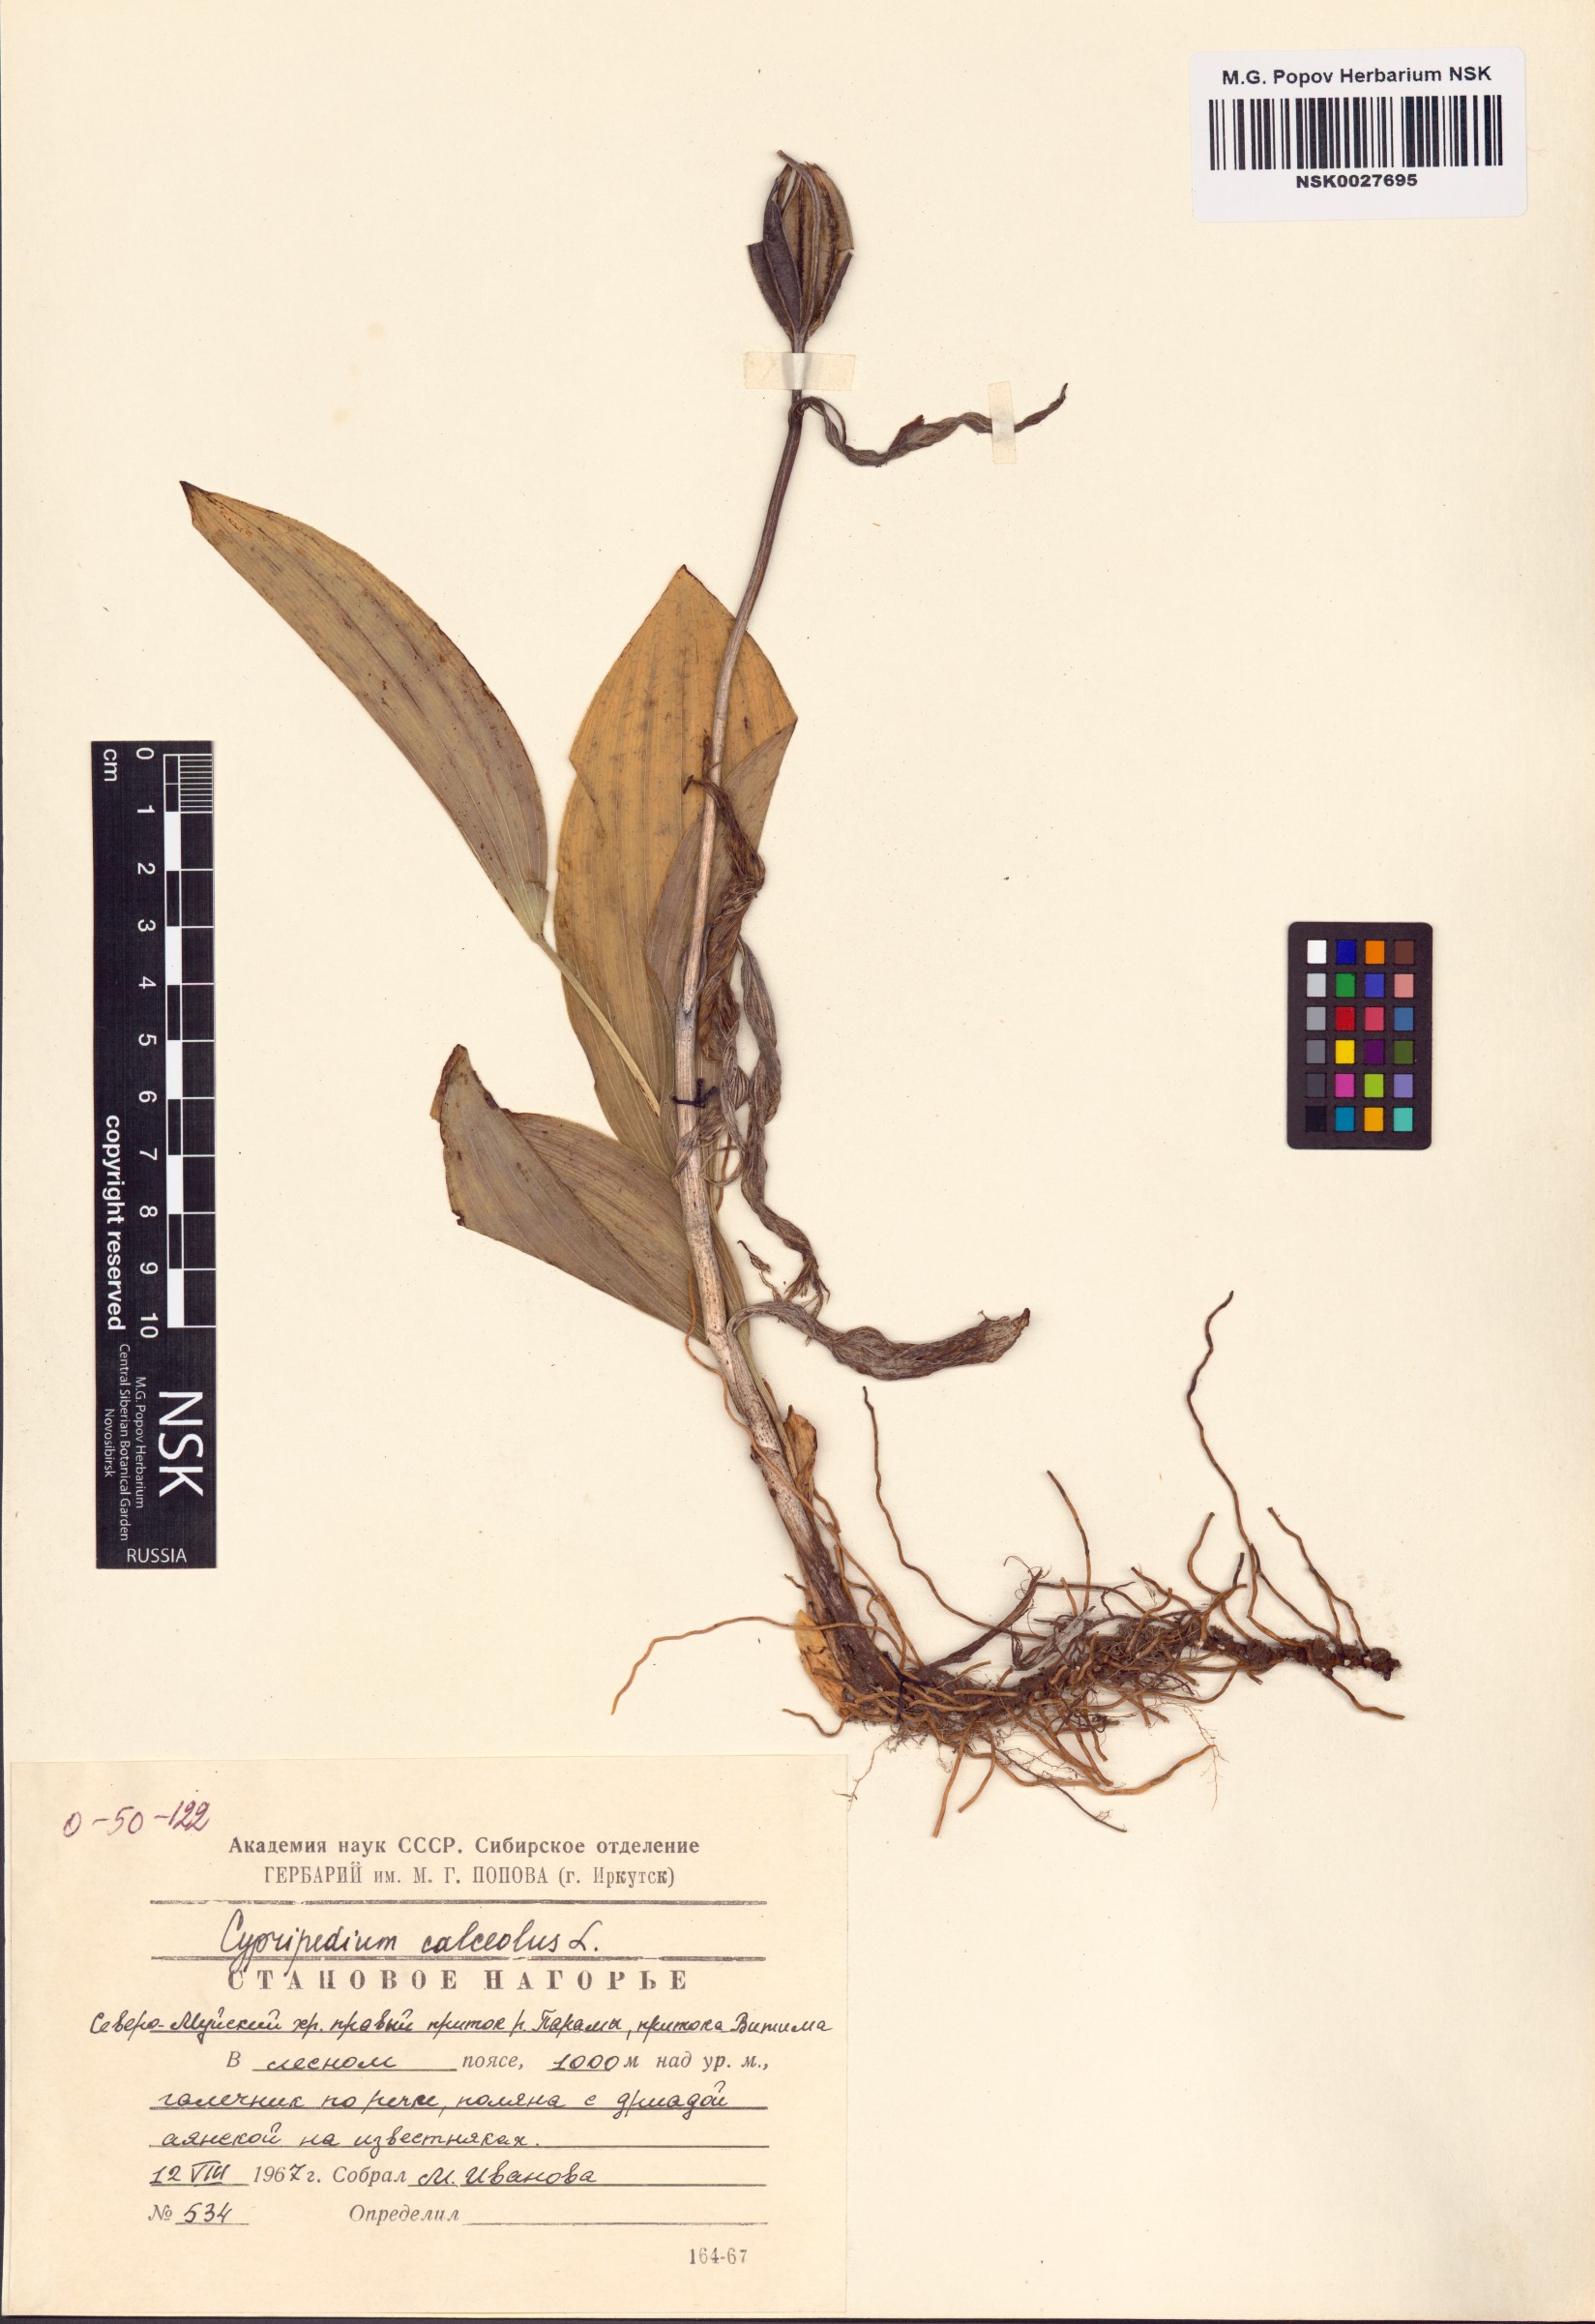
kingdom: Plantae
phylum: Tracheophyta
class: Liliopsida
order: Asparagales
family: Orchidaceae
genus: Cypripedium
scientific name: Cypripedium calceolus
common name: Lady's-slipper
